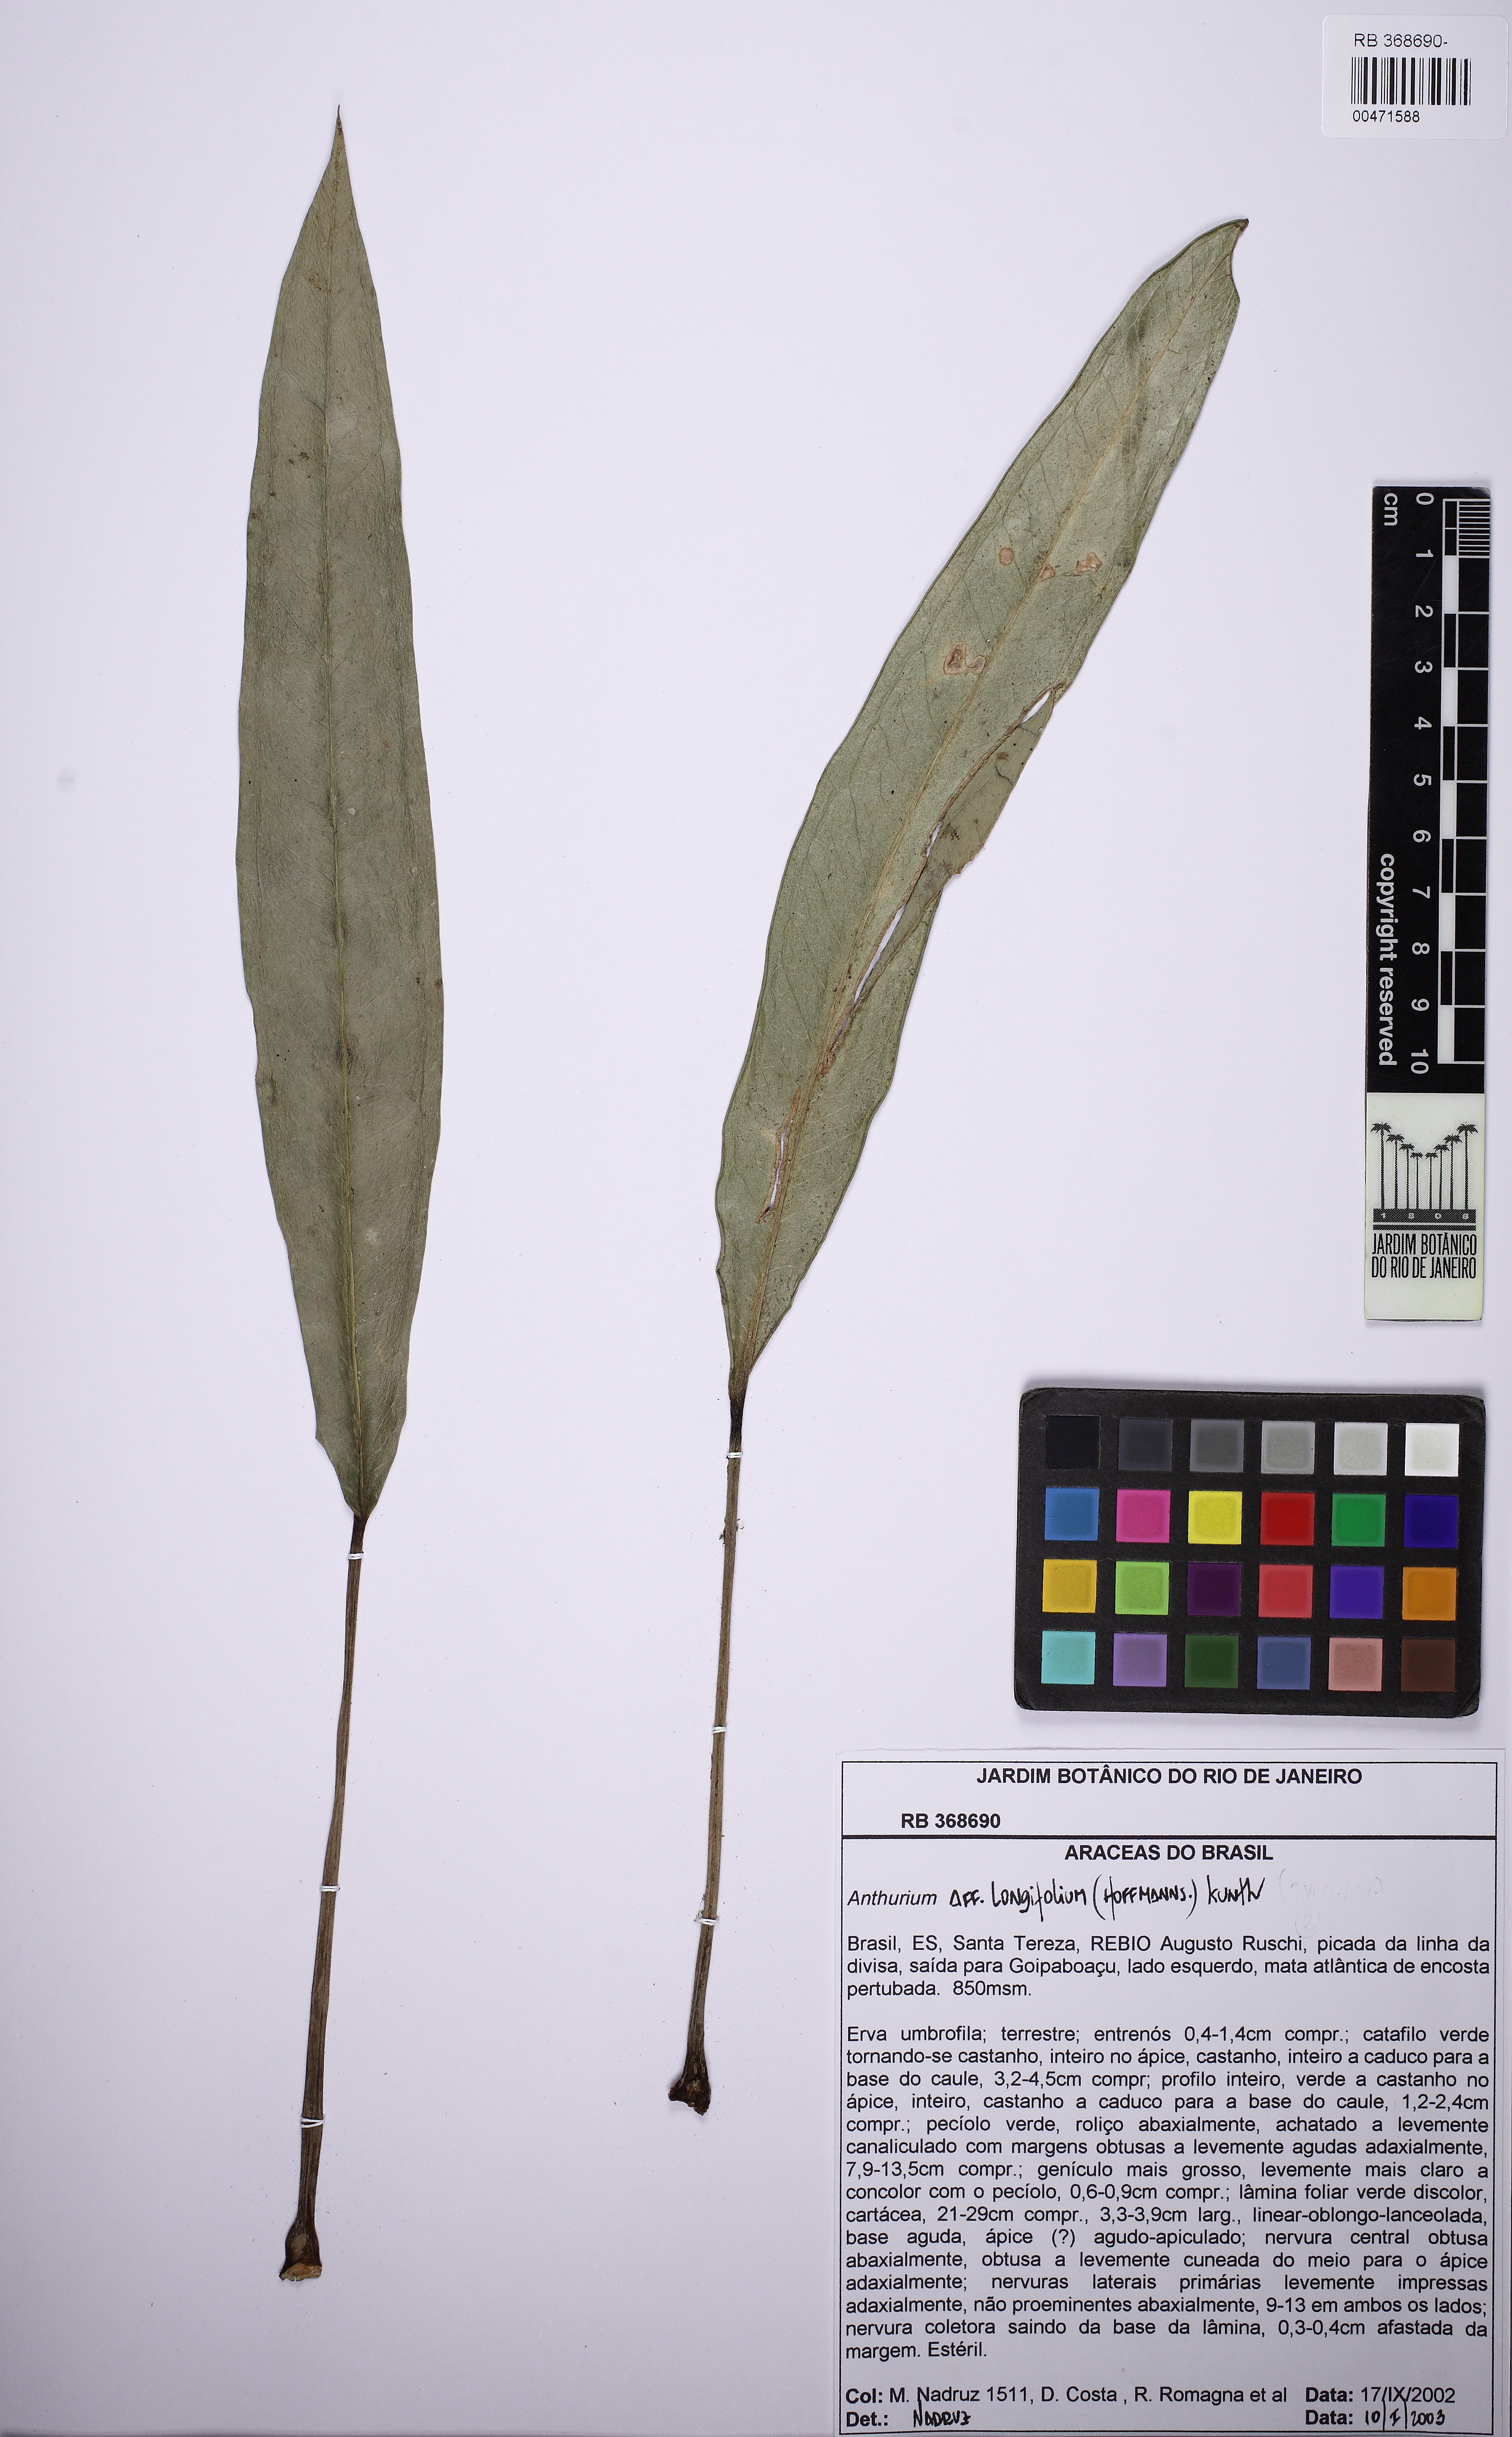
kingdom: Plantae
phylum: Tracheophyta
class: Liliopsida
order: Alismatales
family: Araceae
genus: Anthurium
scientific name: Anthurium longifolium
